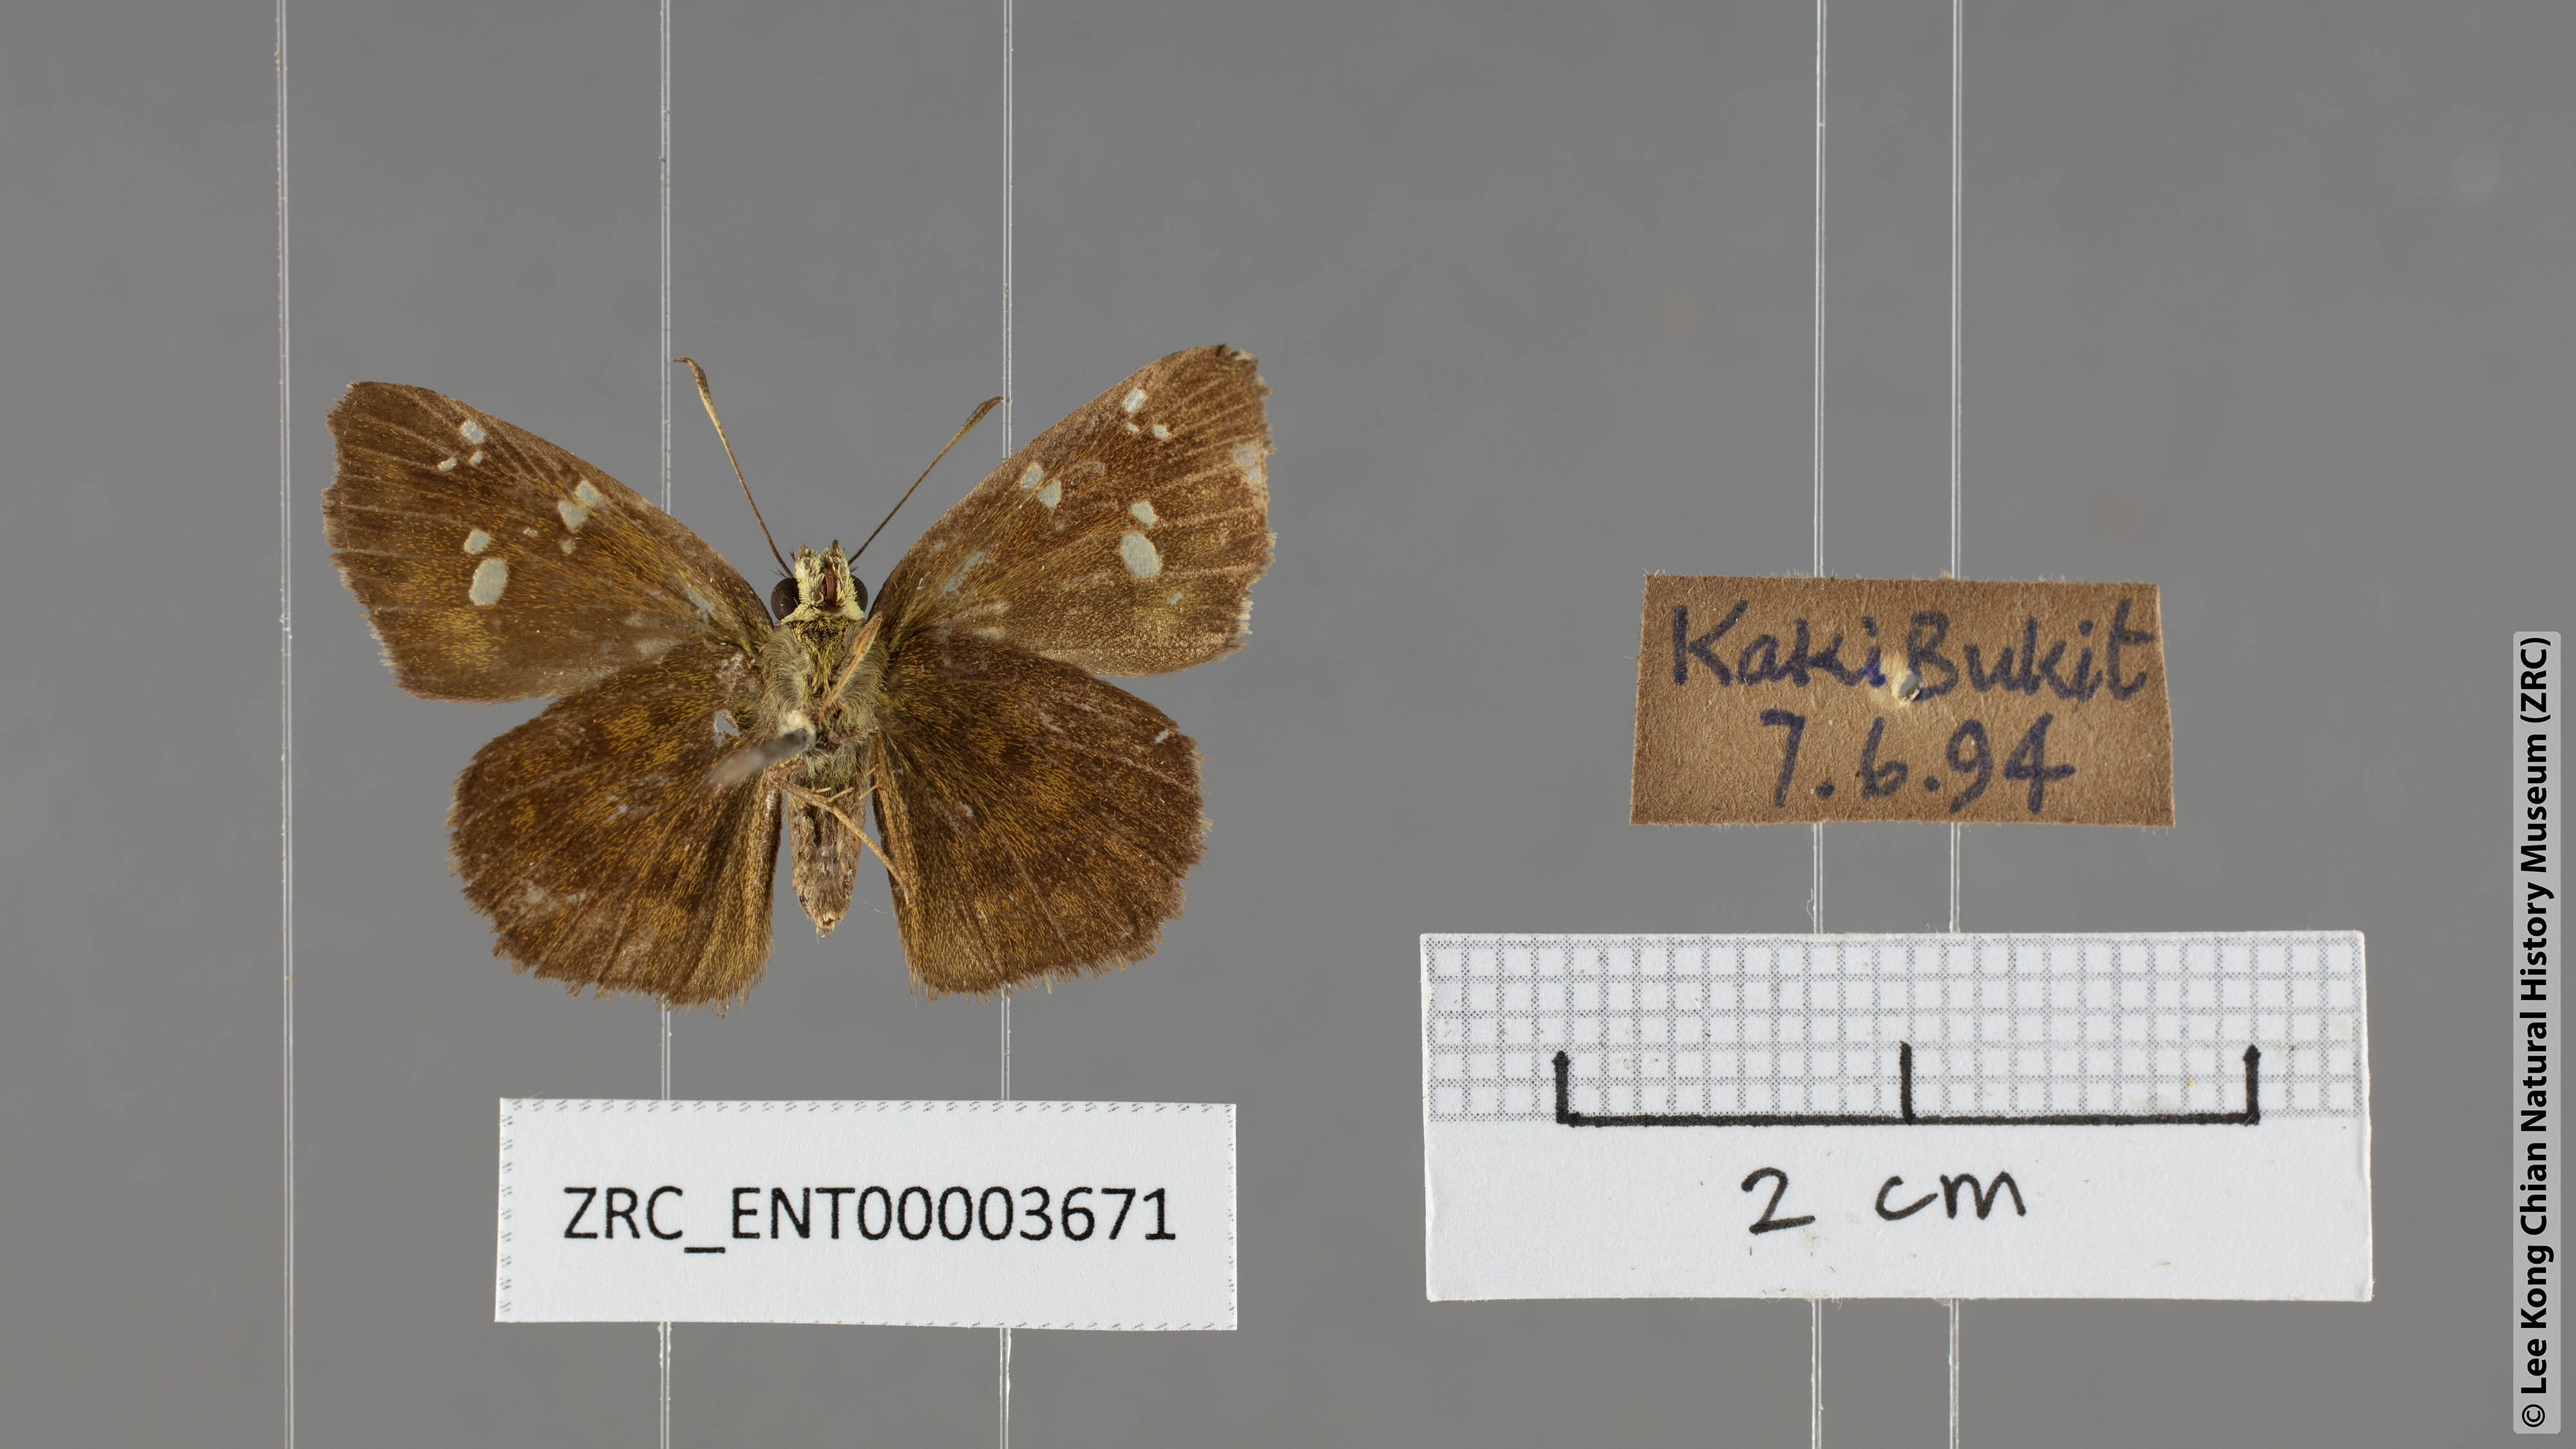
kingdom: Animalia
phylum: Arthropoda
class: Insecta
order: Lepidoptera
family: Hesperiidae
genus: Sarangesa
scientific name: Sarangesa dasahara
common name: Common small flat
